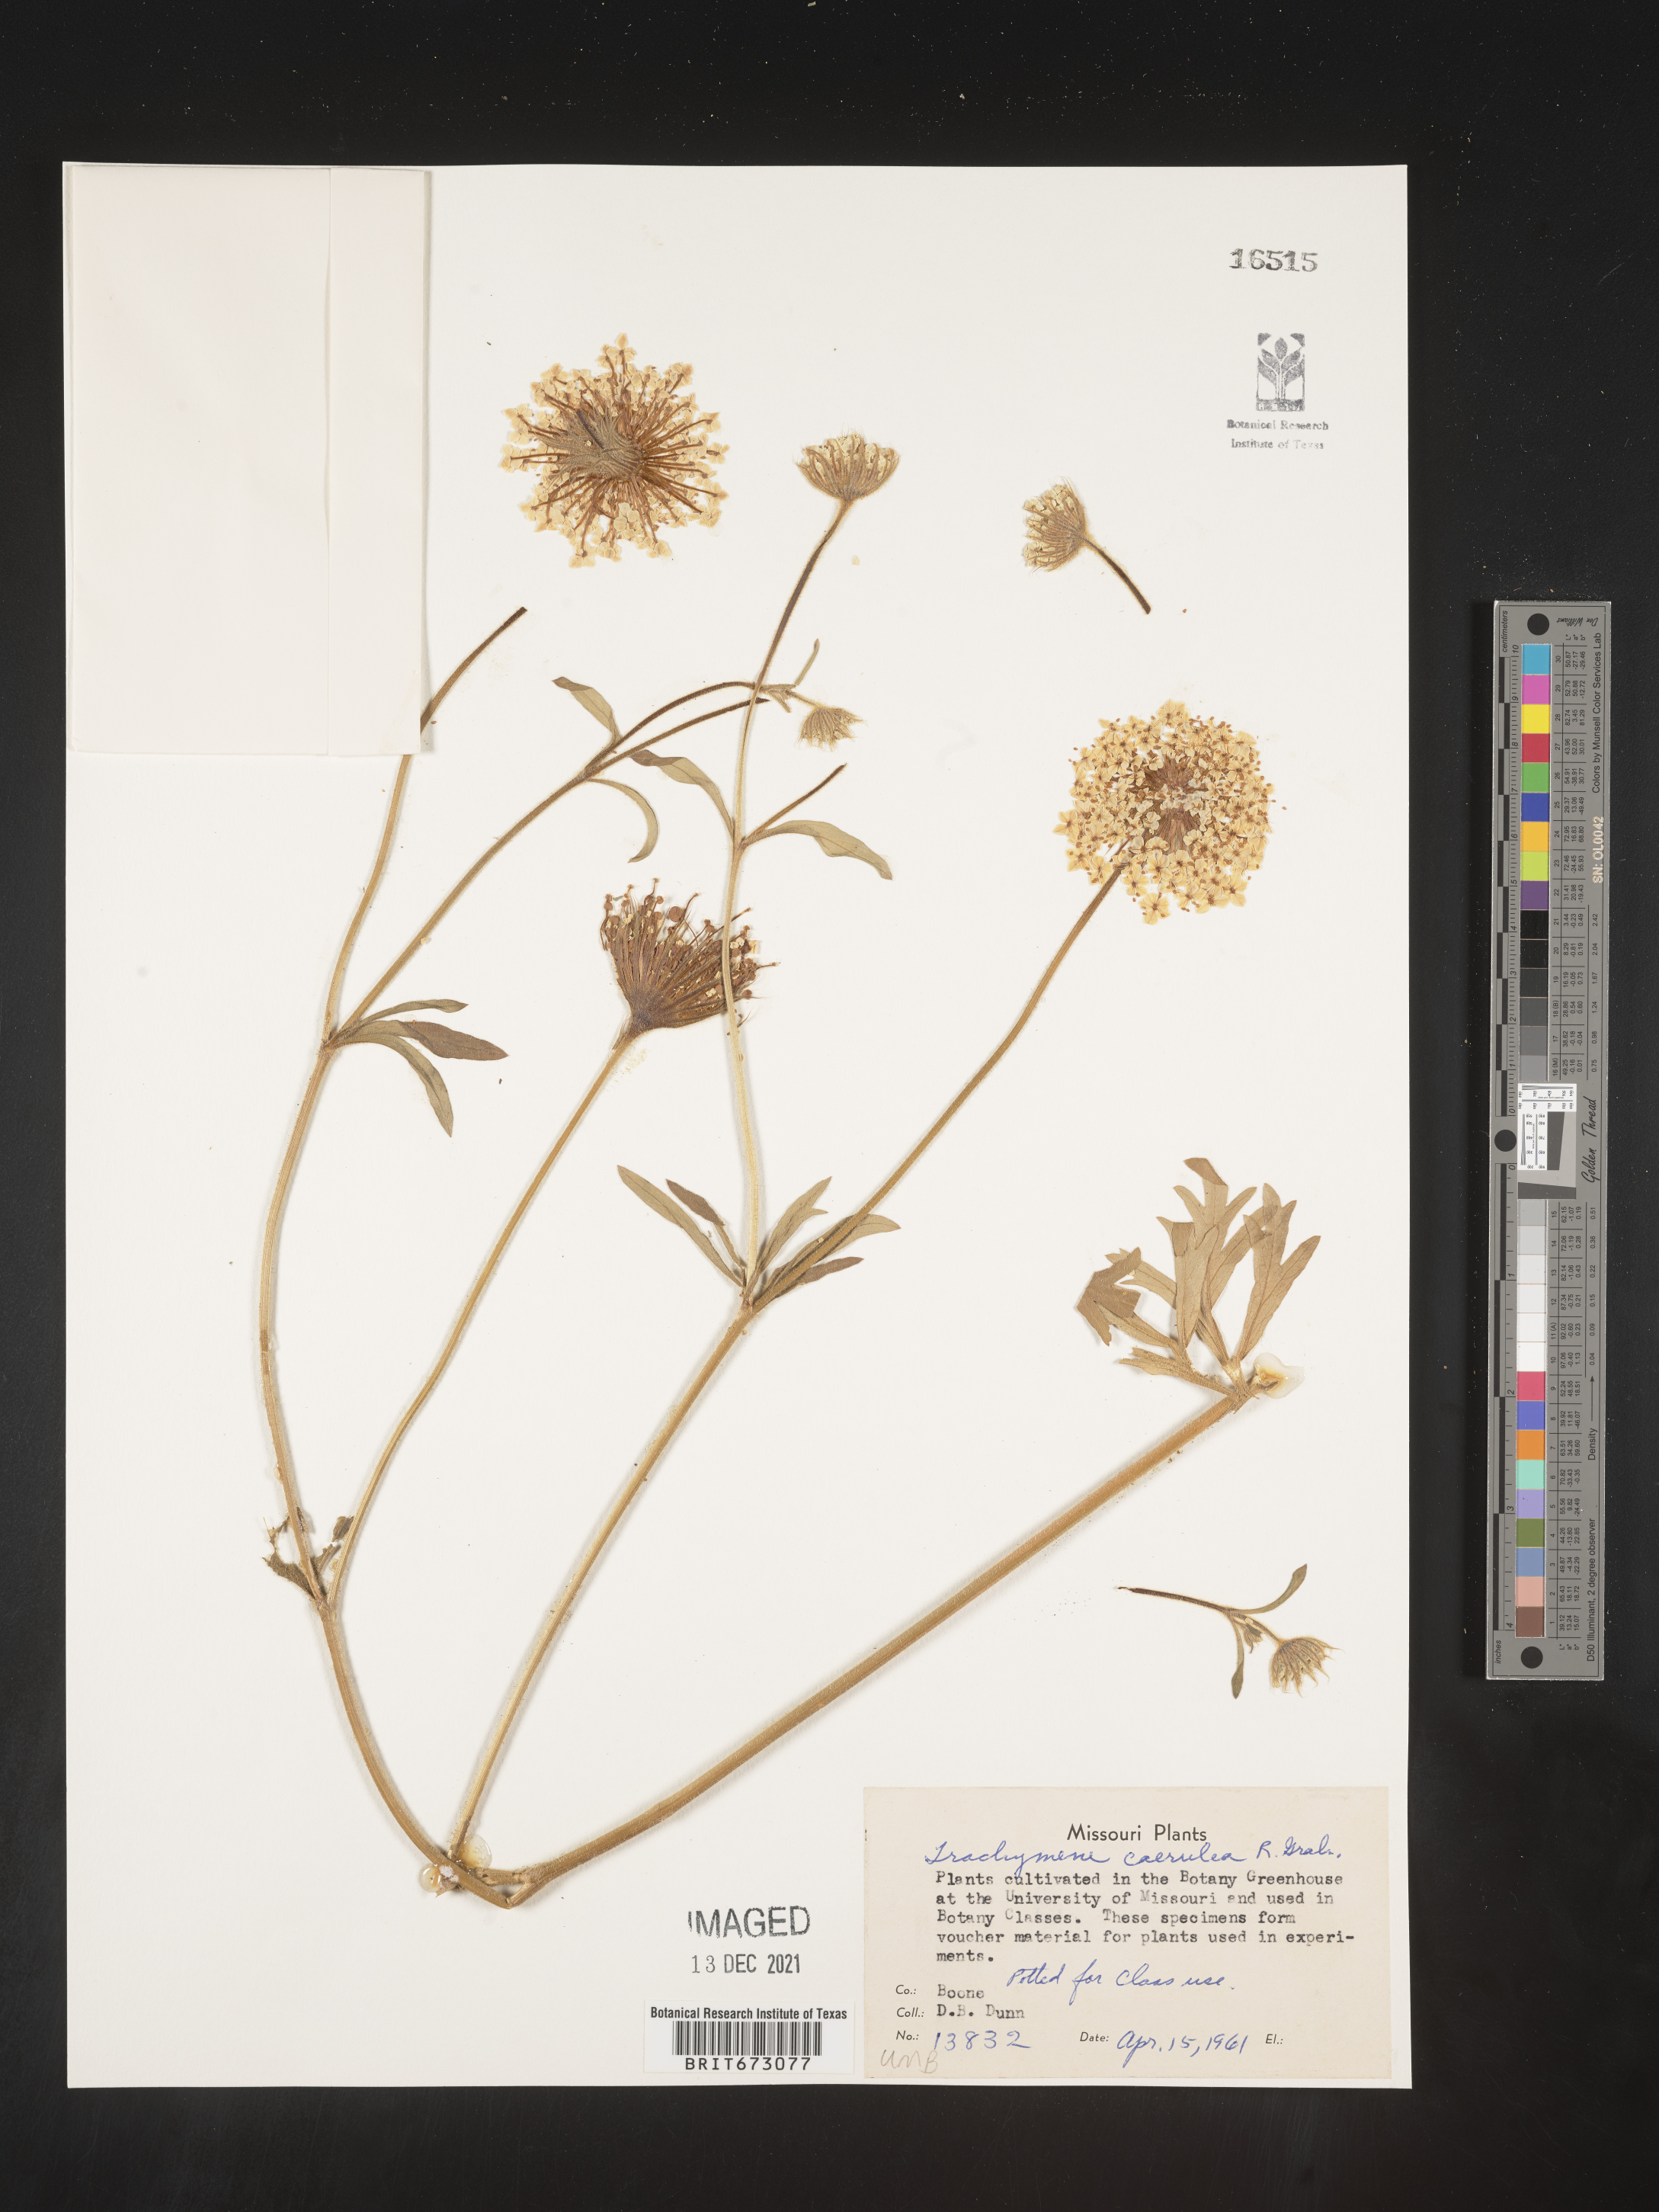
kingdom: Plantae
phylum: Tracheophyta
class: Magnoliopsida
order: Apiales
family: Araliaceae
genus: Trachymene
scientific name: Trachymene
